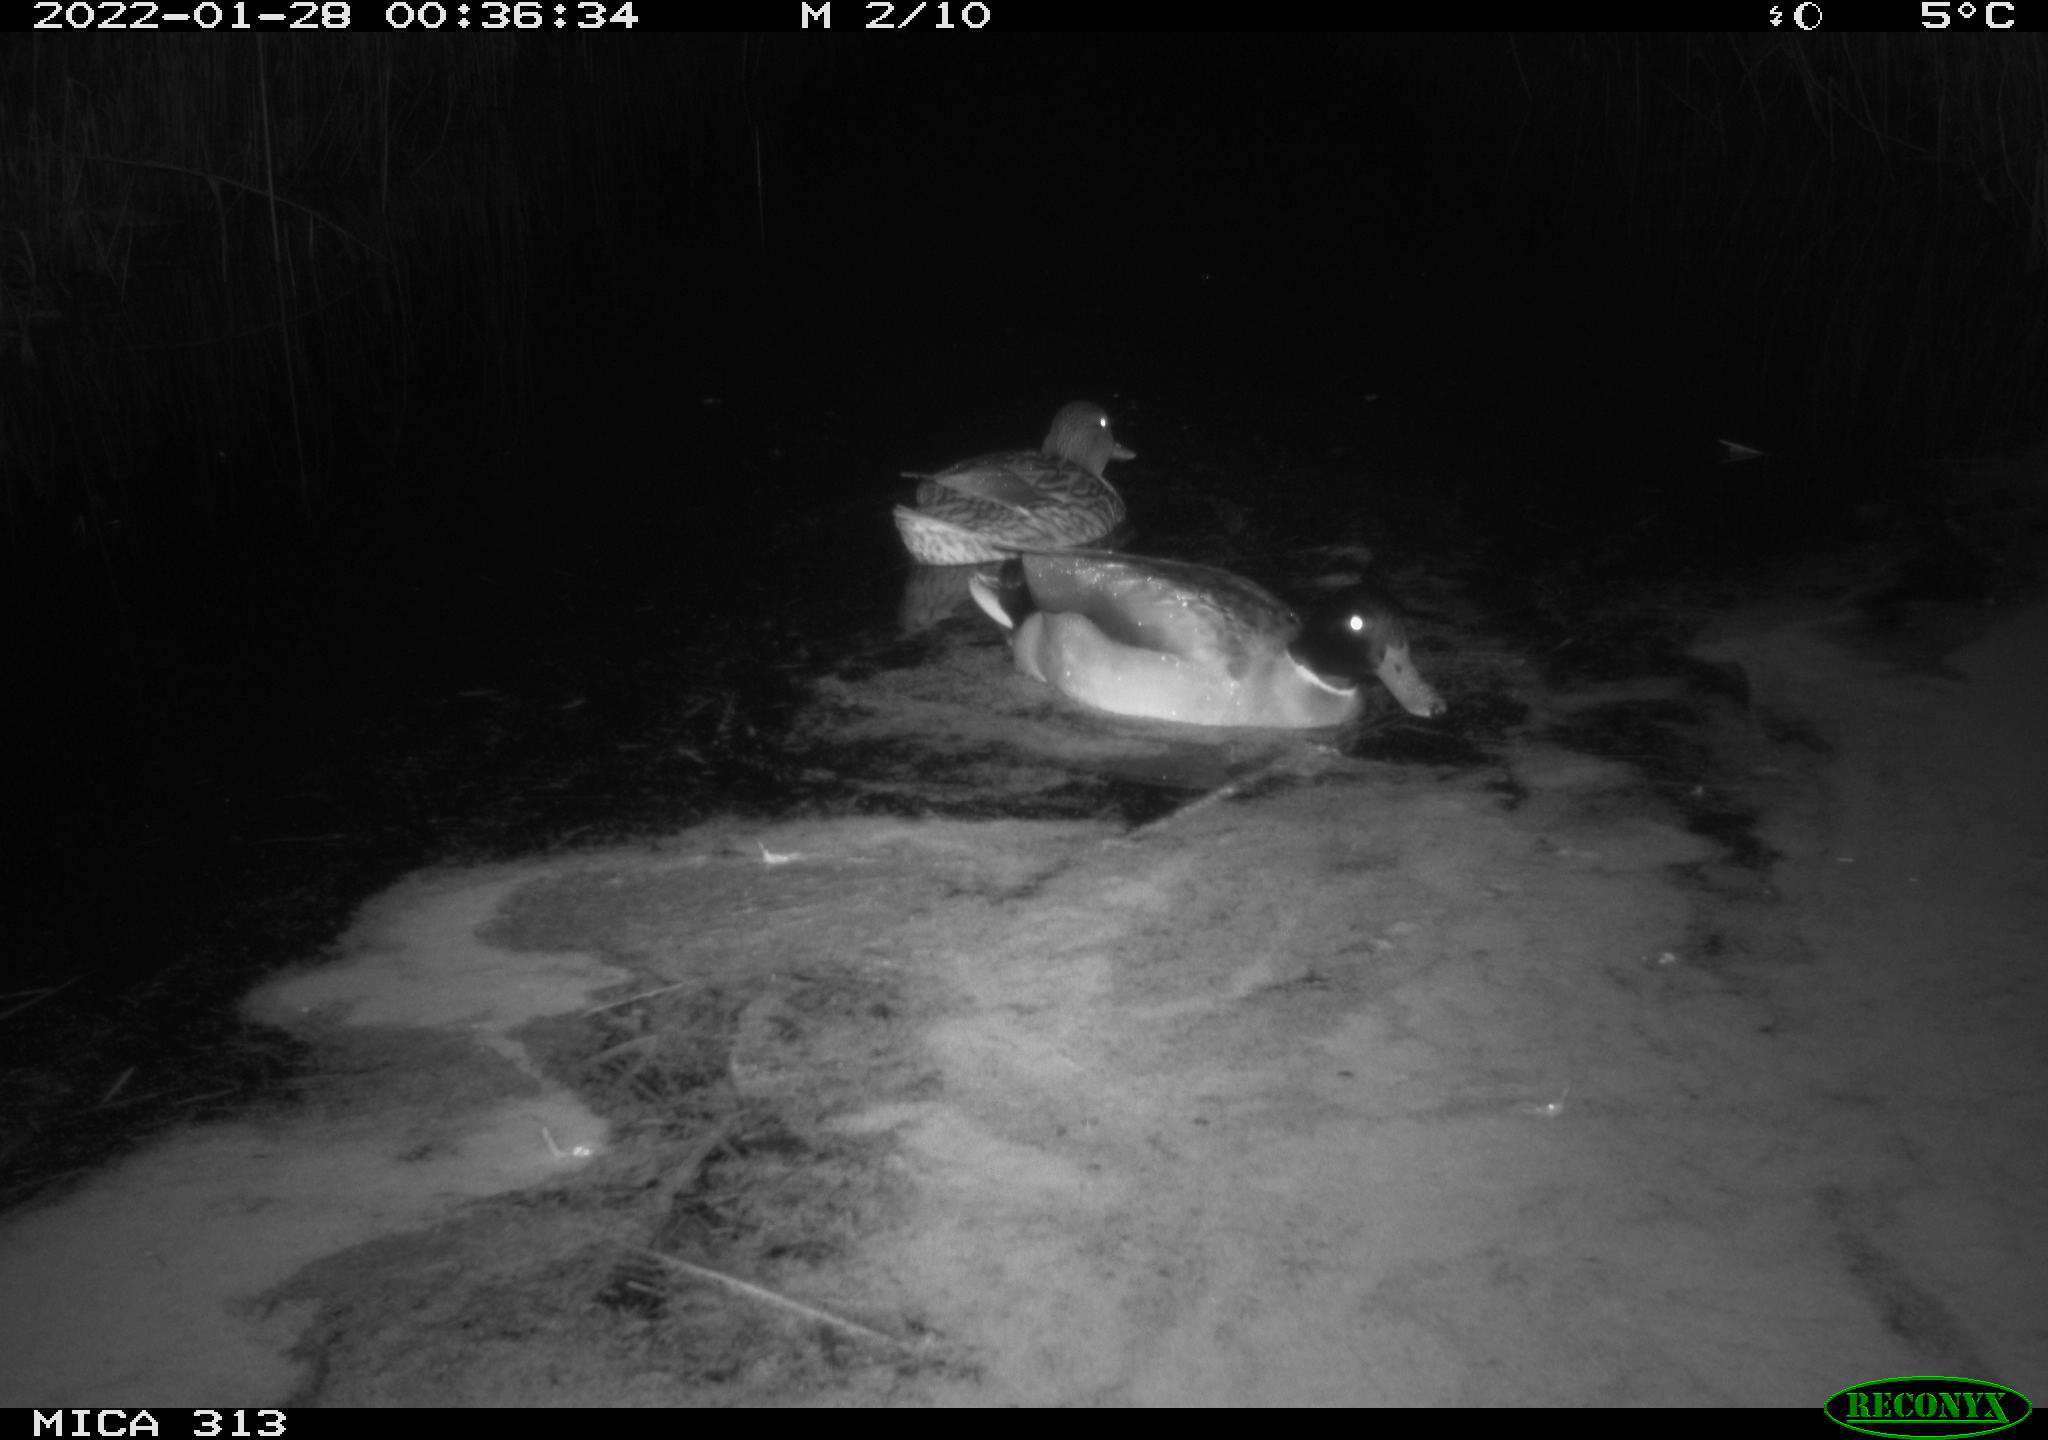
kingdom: Animalia
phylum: Chordata
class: Aves
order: Anseriformes
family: Anatidae
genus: Anas
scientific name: Anas
